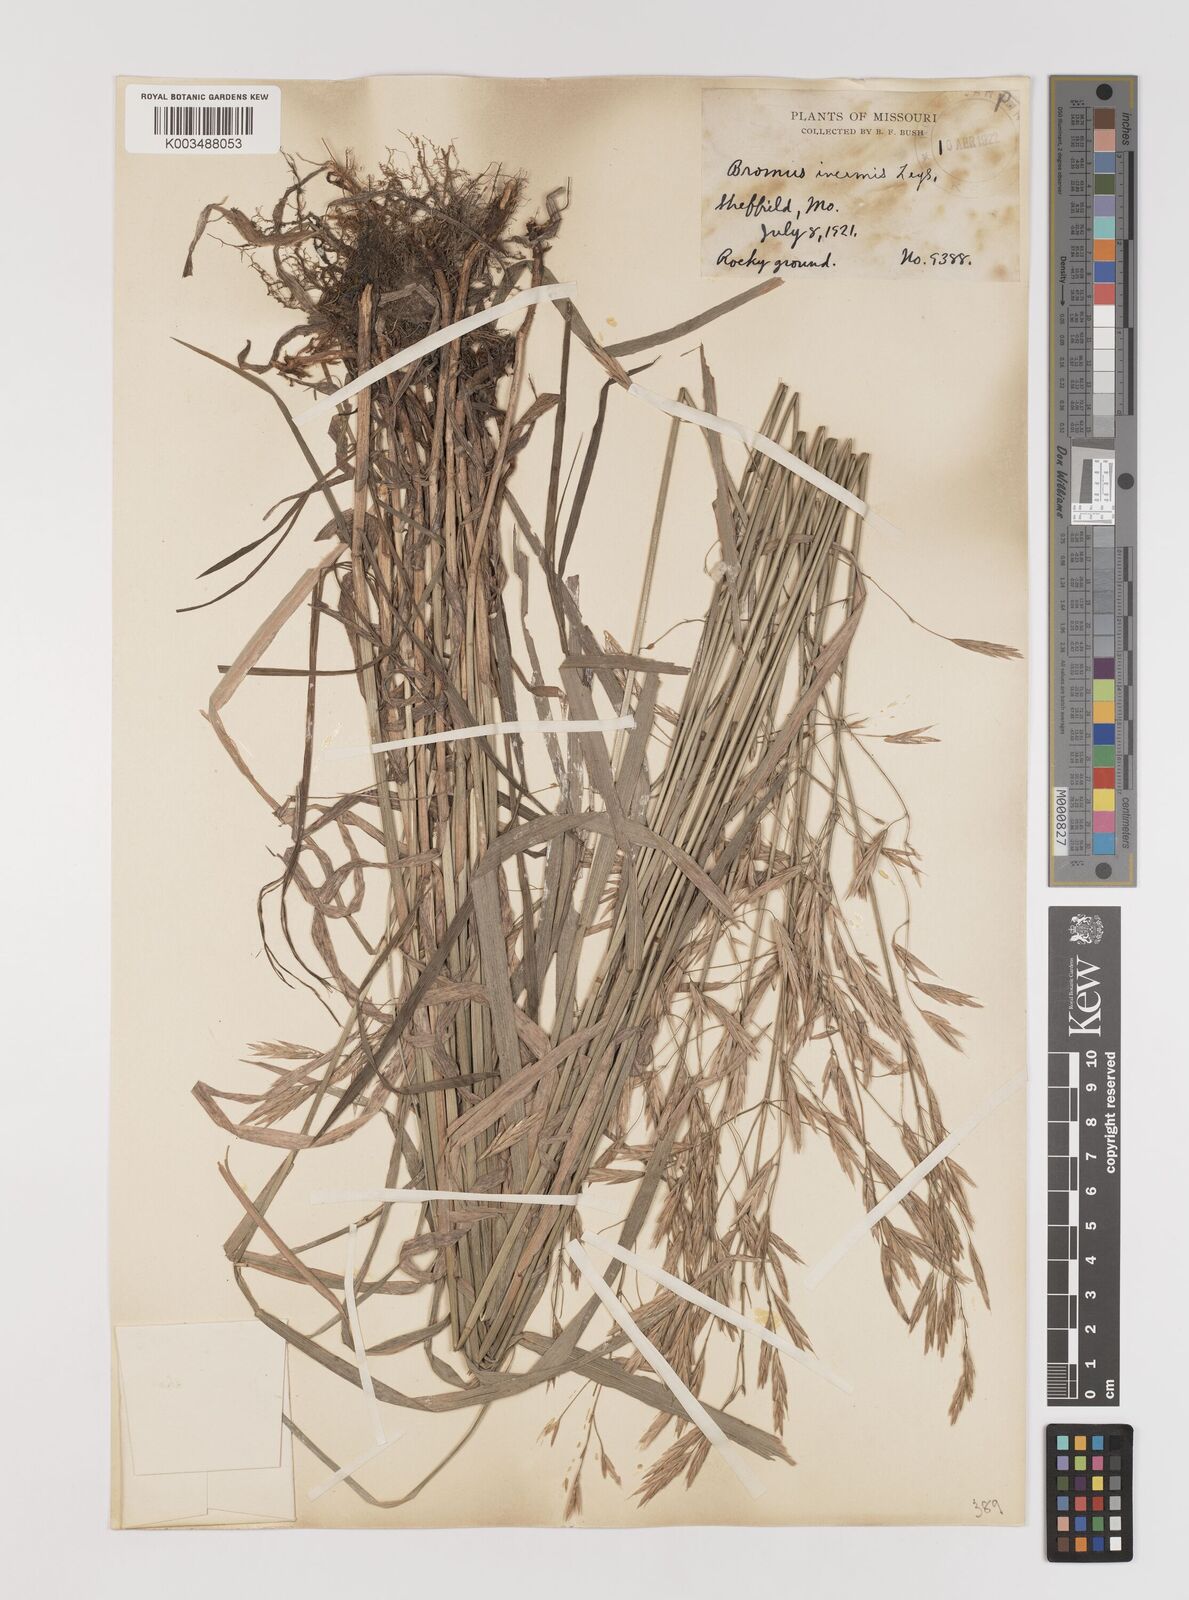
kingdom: Plantae
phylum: Tracheophyta
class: Liliopsida
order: Poales
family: Poaceae
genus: Bromus
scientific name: Bromus inermis
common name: Smooth brome
